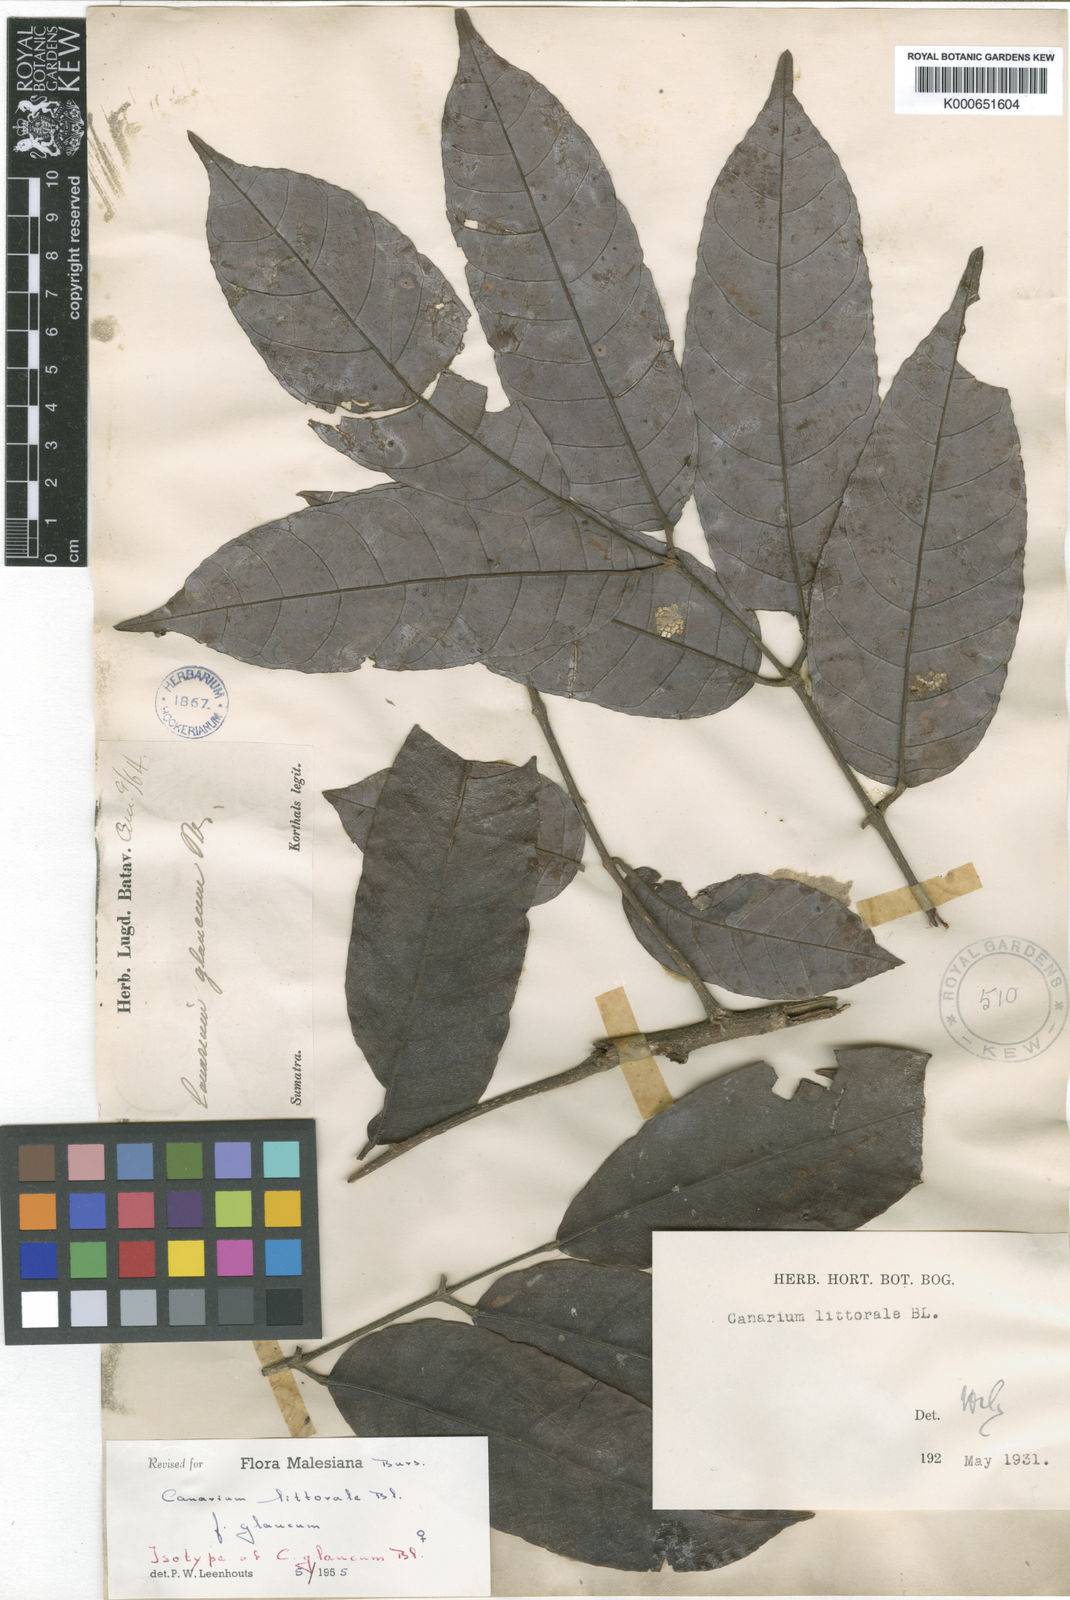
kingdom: Plantae
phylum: Tracheophyta
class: Magnoliopsida
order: Sapindales
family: Burseraceae
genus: Canarium
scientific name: Canarium littorale
